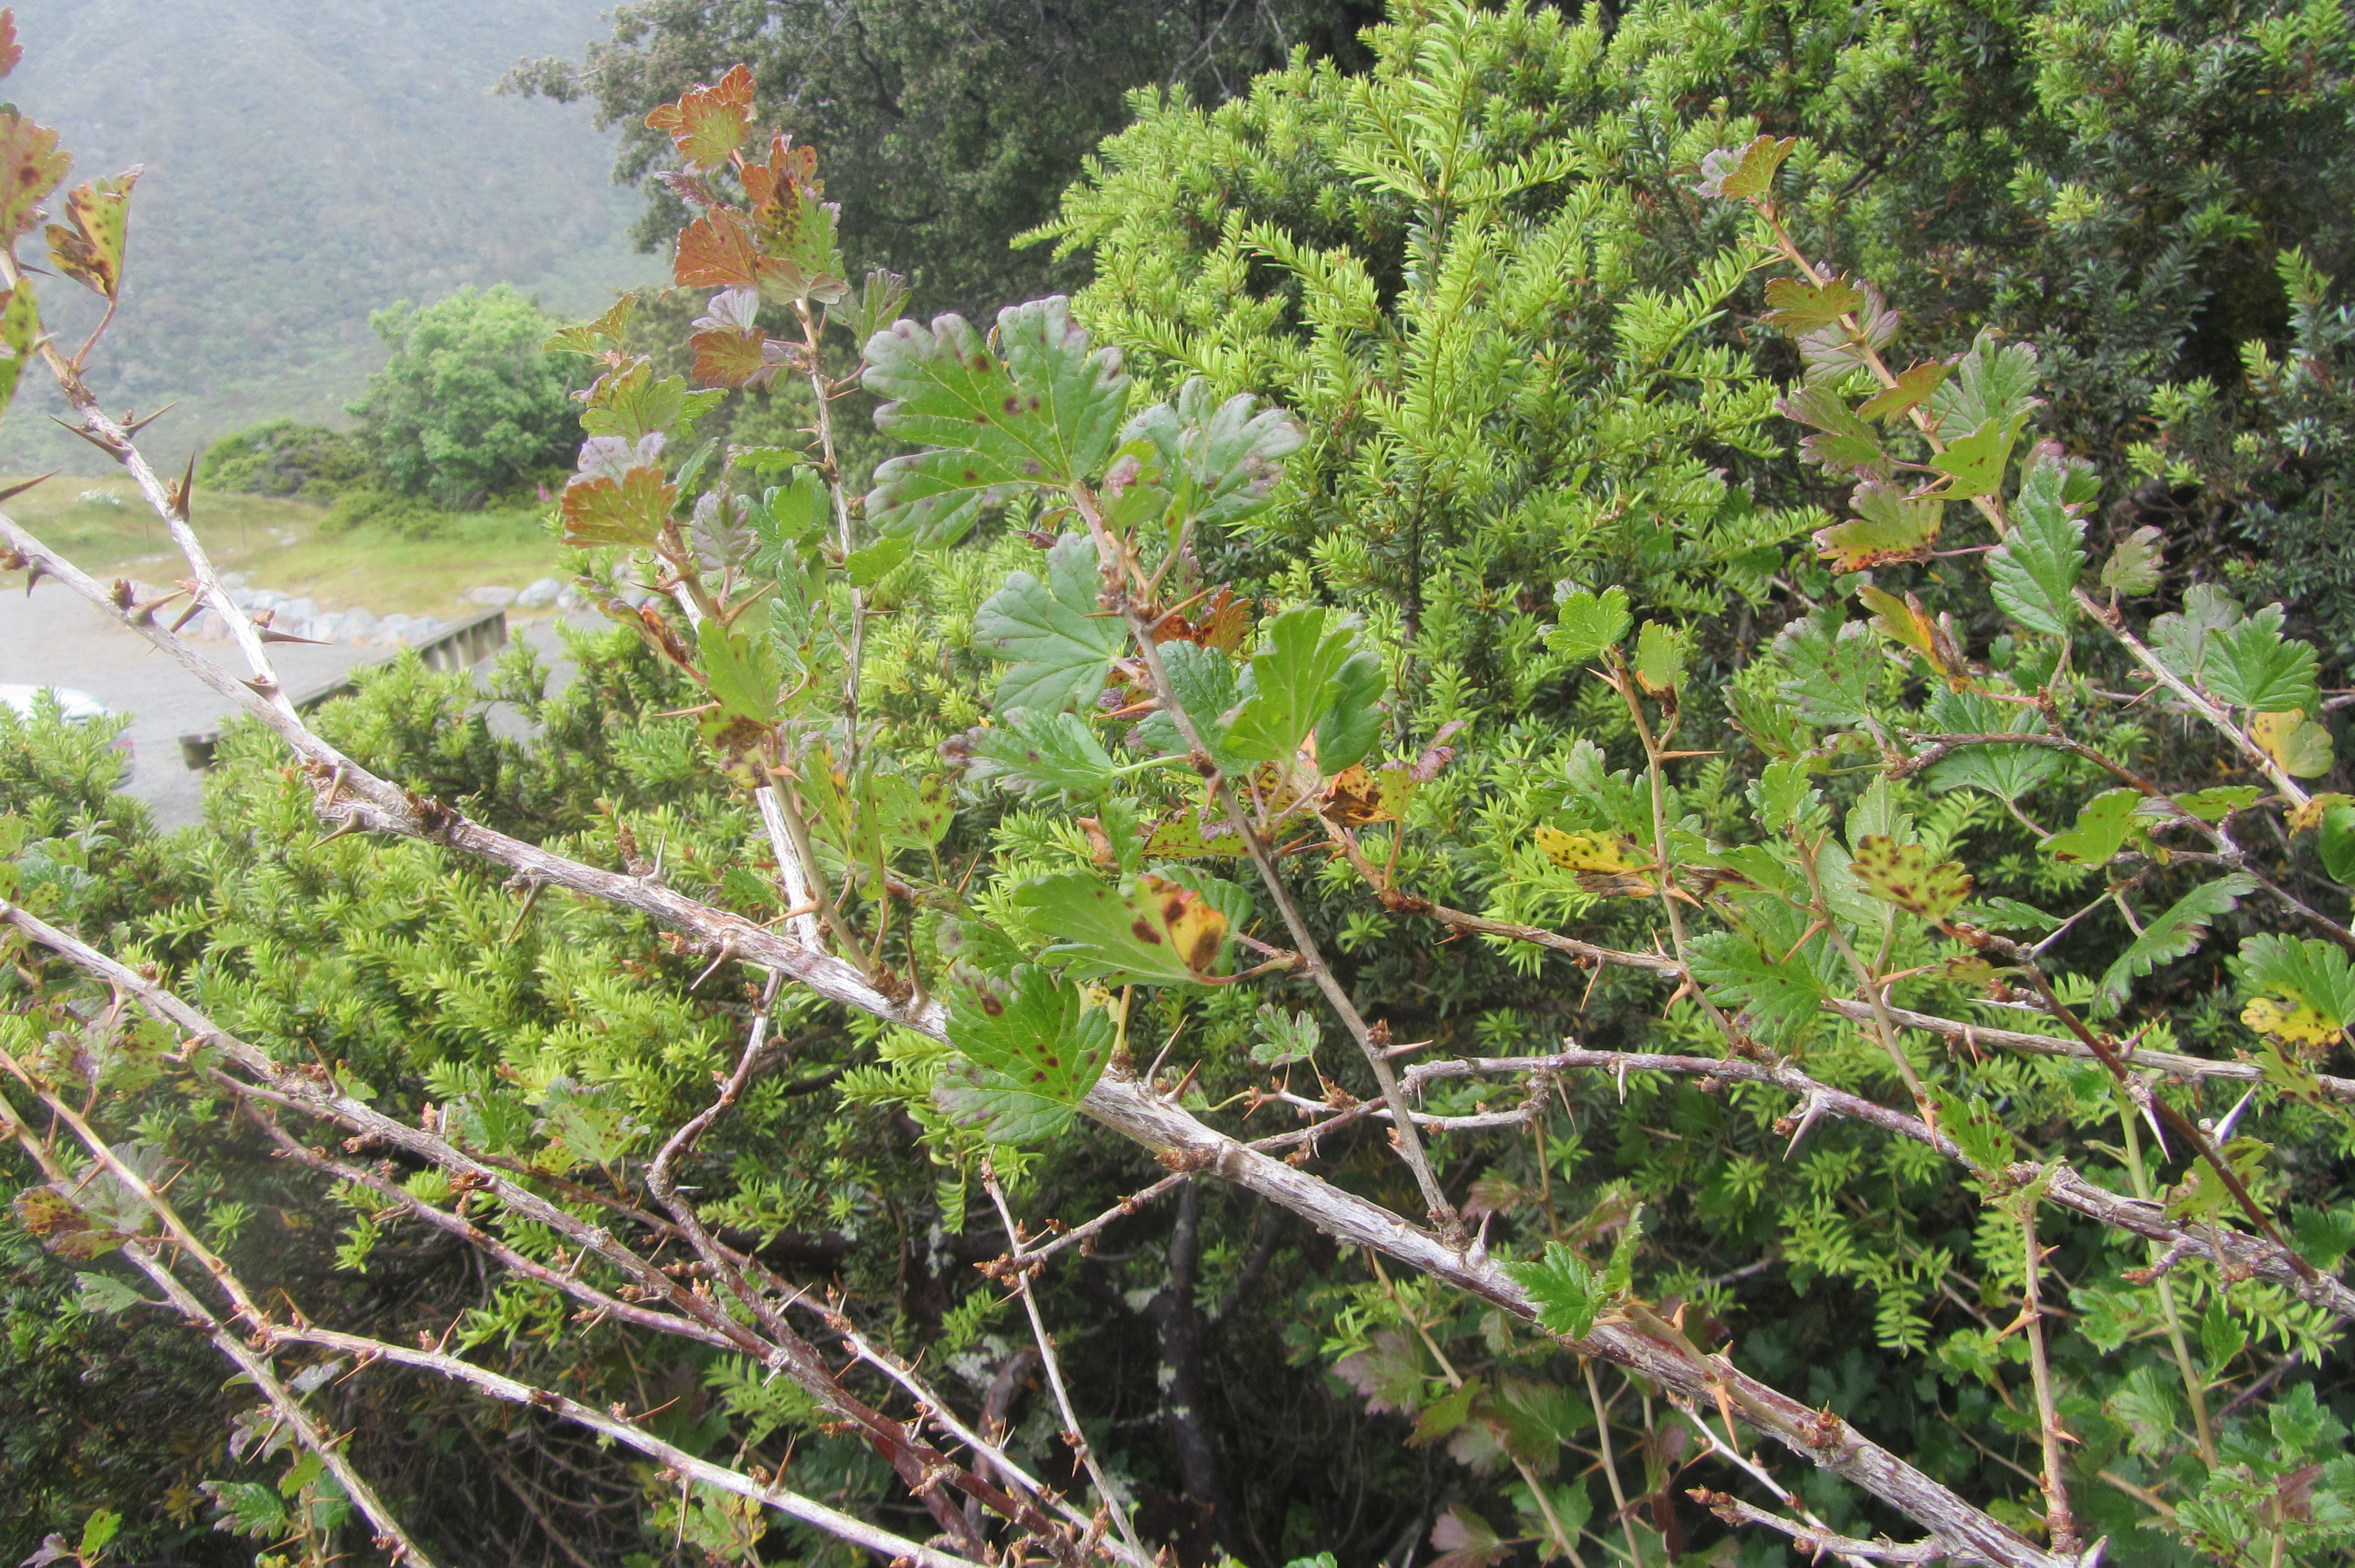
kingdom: Plantae
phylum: Tracheophyta
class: Magnoliopsida
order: Saxifragales
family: Grossulariaceae
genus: Ribes
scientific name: Ribes uva-crispa
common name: Gooseberry
